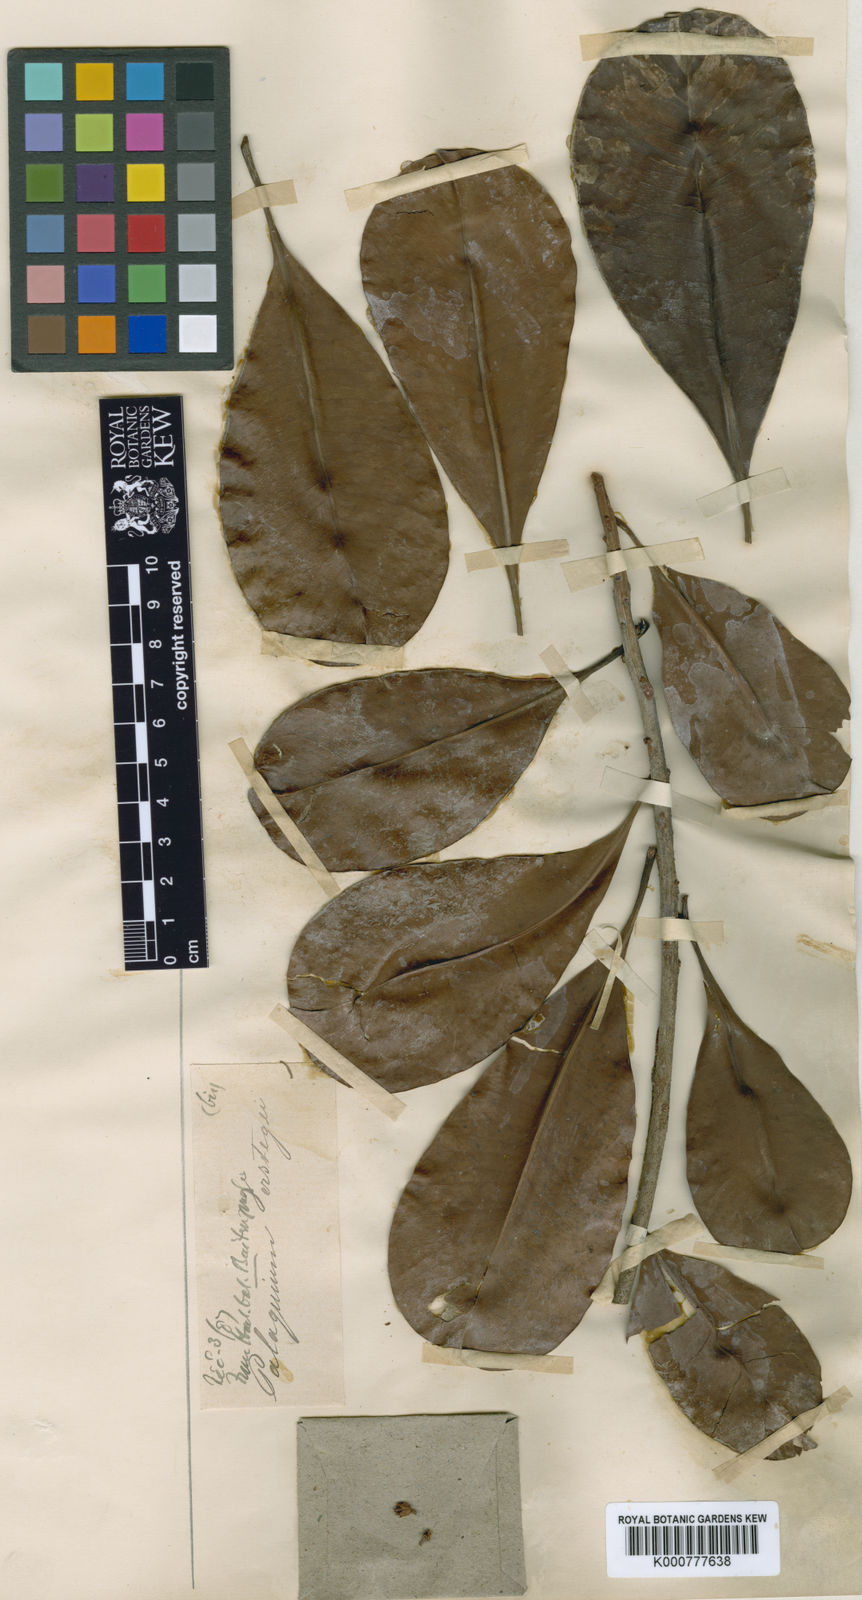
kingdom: Plantae
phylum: Tracheophyta
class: Magnoliopsida
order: Ericales
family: Sapotaceae
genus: Palaquium
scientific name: Palaquium rostratum
